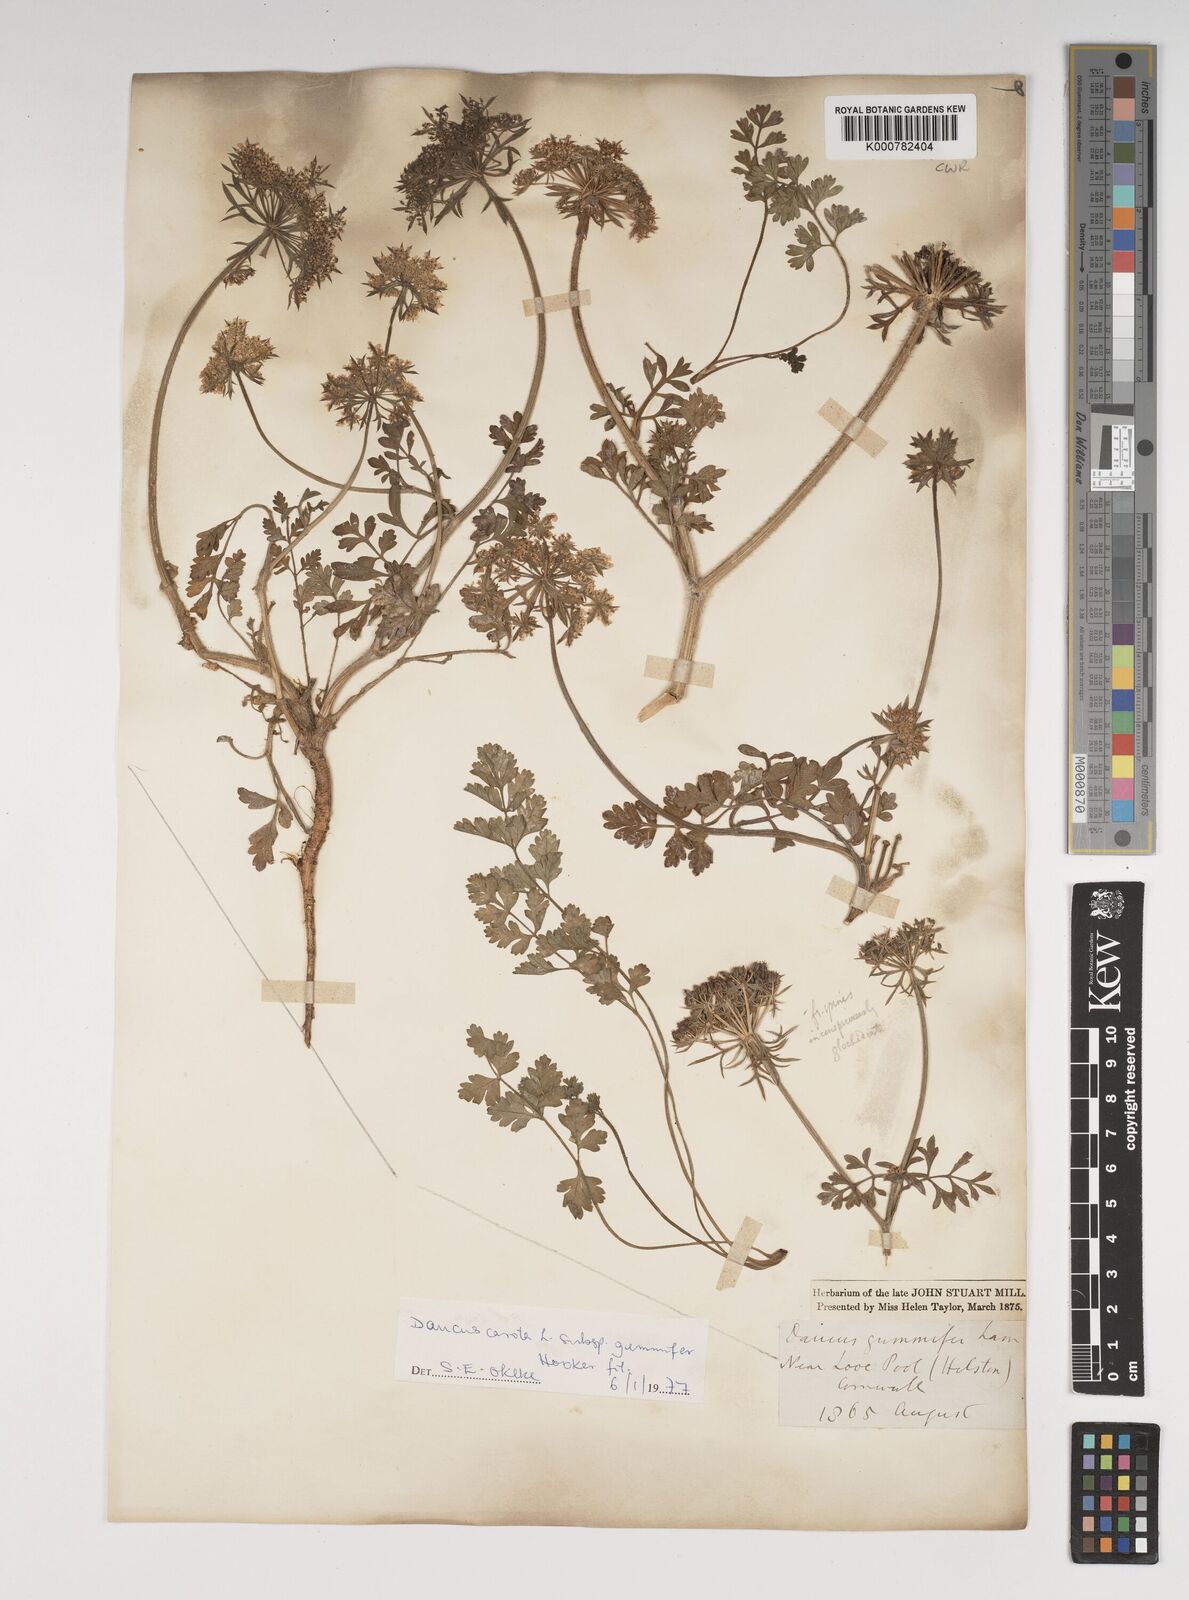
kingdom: Plantae
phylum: Tracheophyta
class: Magnoliopsida
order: Apiales
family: Apiaceae
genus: Daucus
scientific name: Daucus carota
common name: Wild carrot
